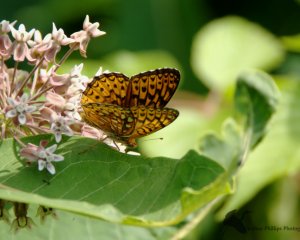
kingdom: Animalia
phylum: Arthropoda
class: Insecta
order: Lepidoptera
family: Nymphalidae
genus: Speyeria
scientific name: Speyeria atlantis
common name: Atlantis Fritillary
